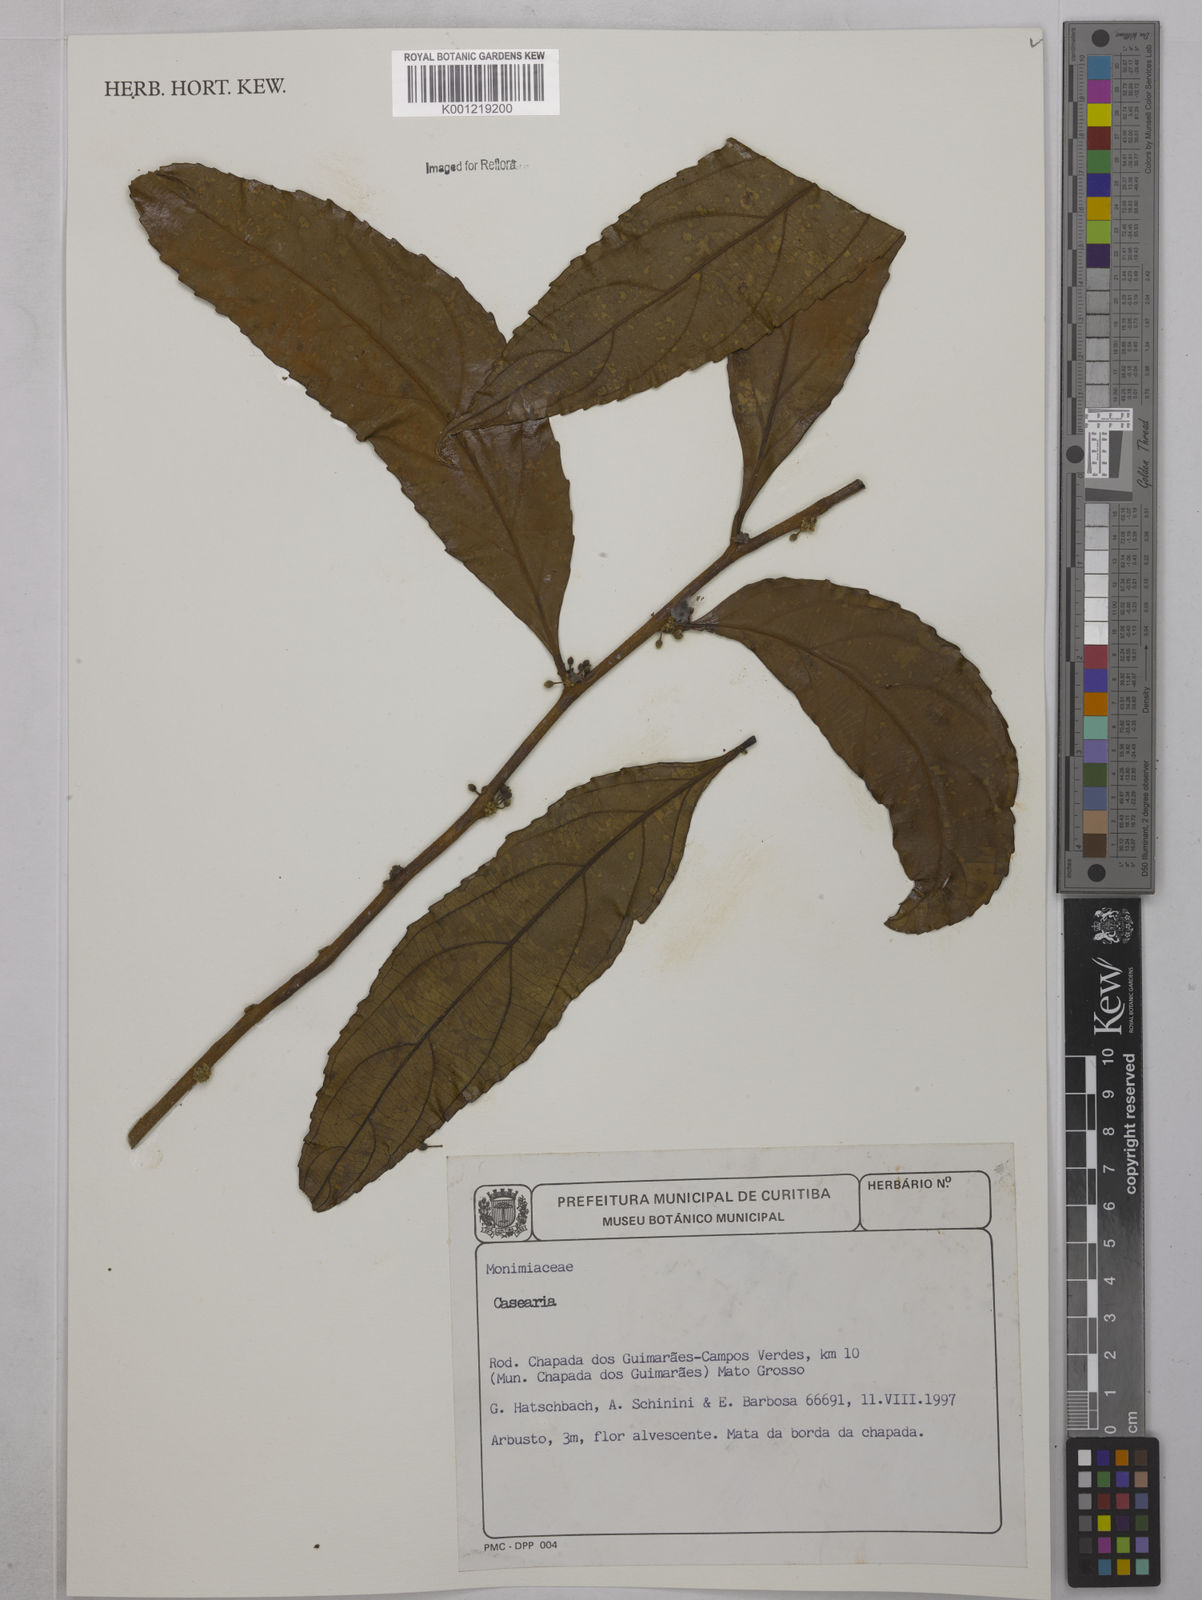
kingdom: Plantae
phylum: Tracheophyta
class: Magnoliopsida
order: Malpighiales
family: Salicaceae
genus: Casearia
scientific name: Casearia
